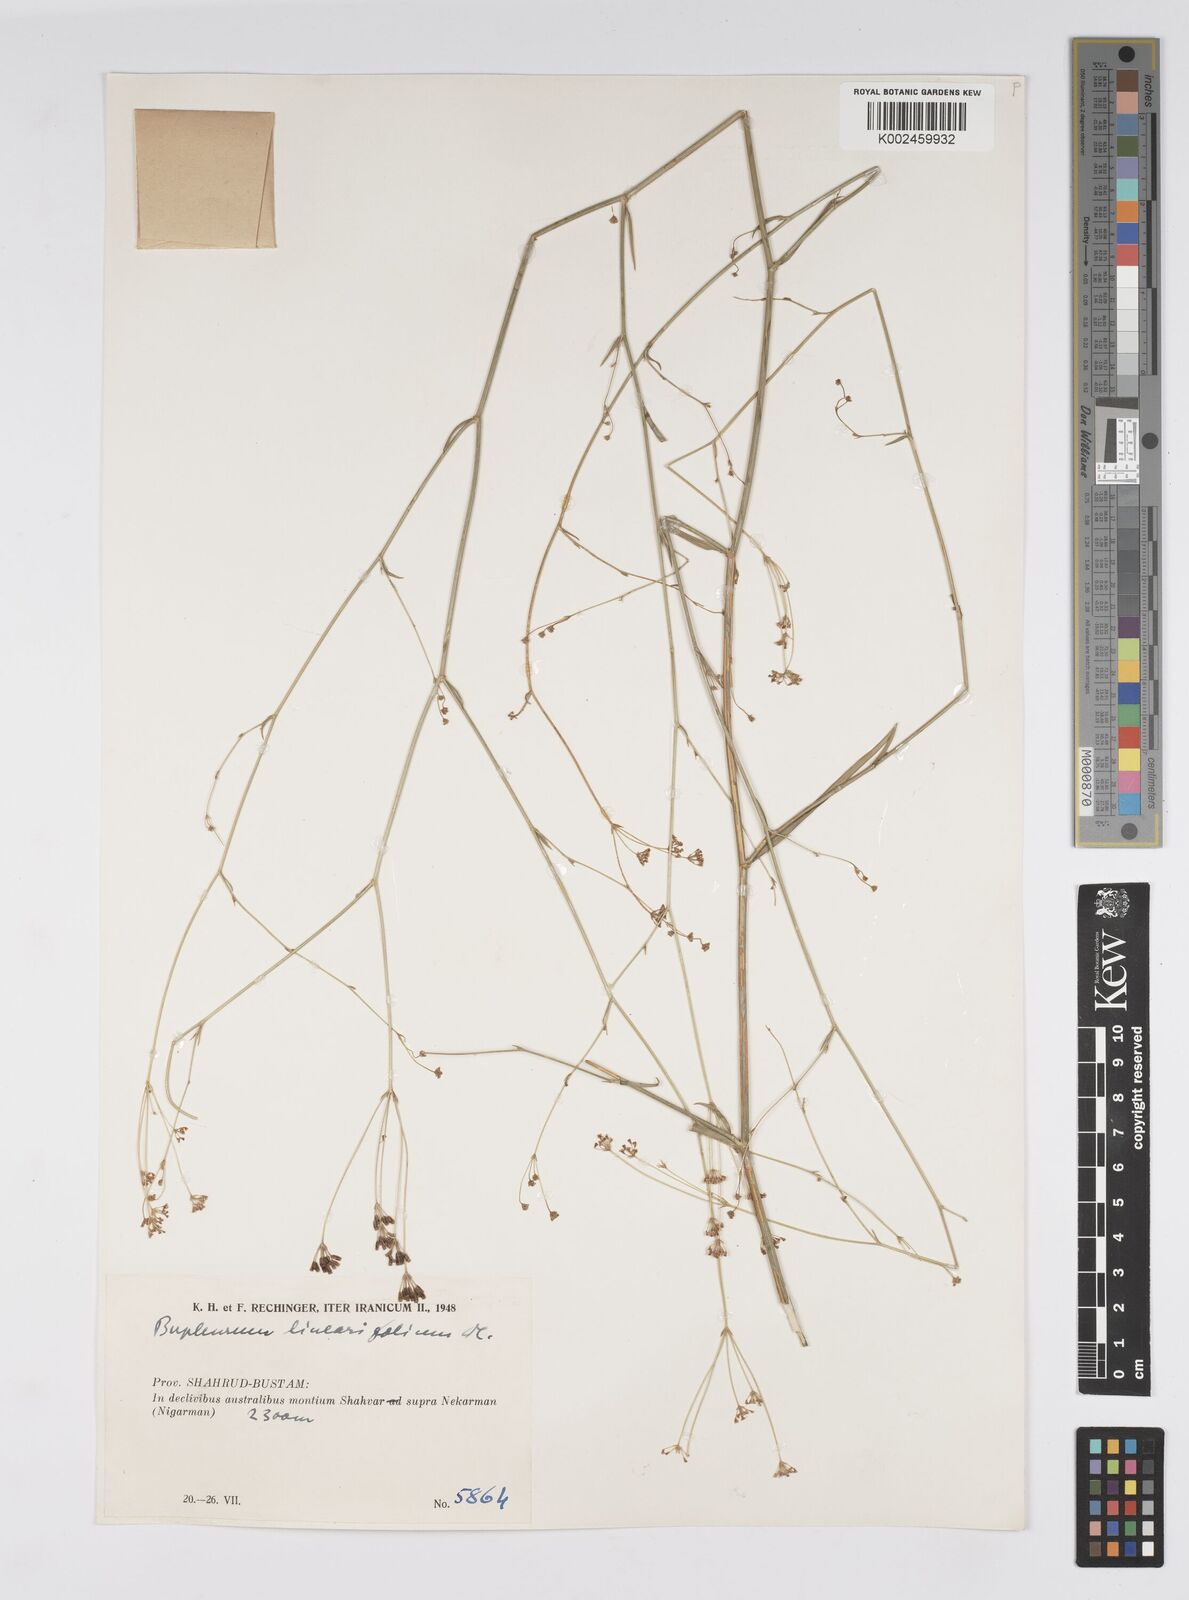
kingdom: Plantae
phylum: Tracheophyta
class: Magnoliopsida
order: Apiales
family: Apiaceae
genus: Bupleurum
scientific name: Bupleurum falcatum
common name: Sickle-leaved hare's-ear
